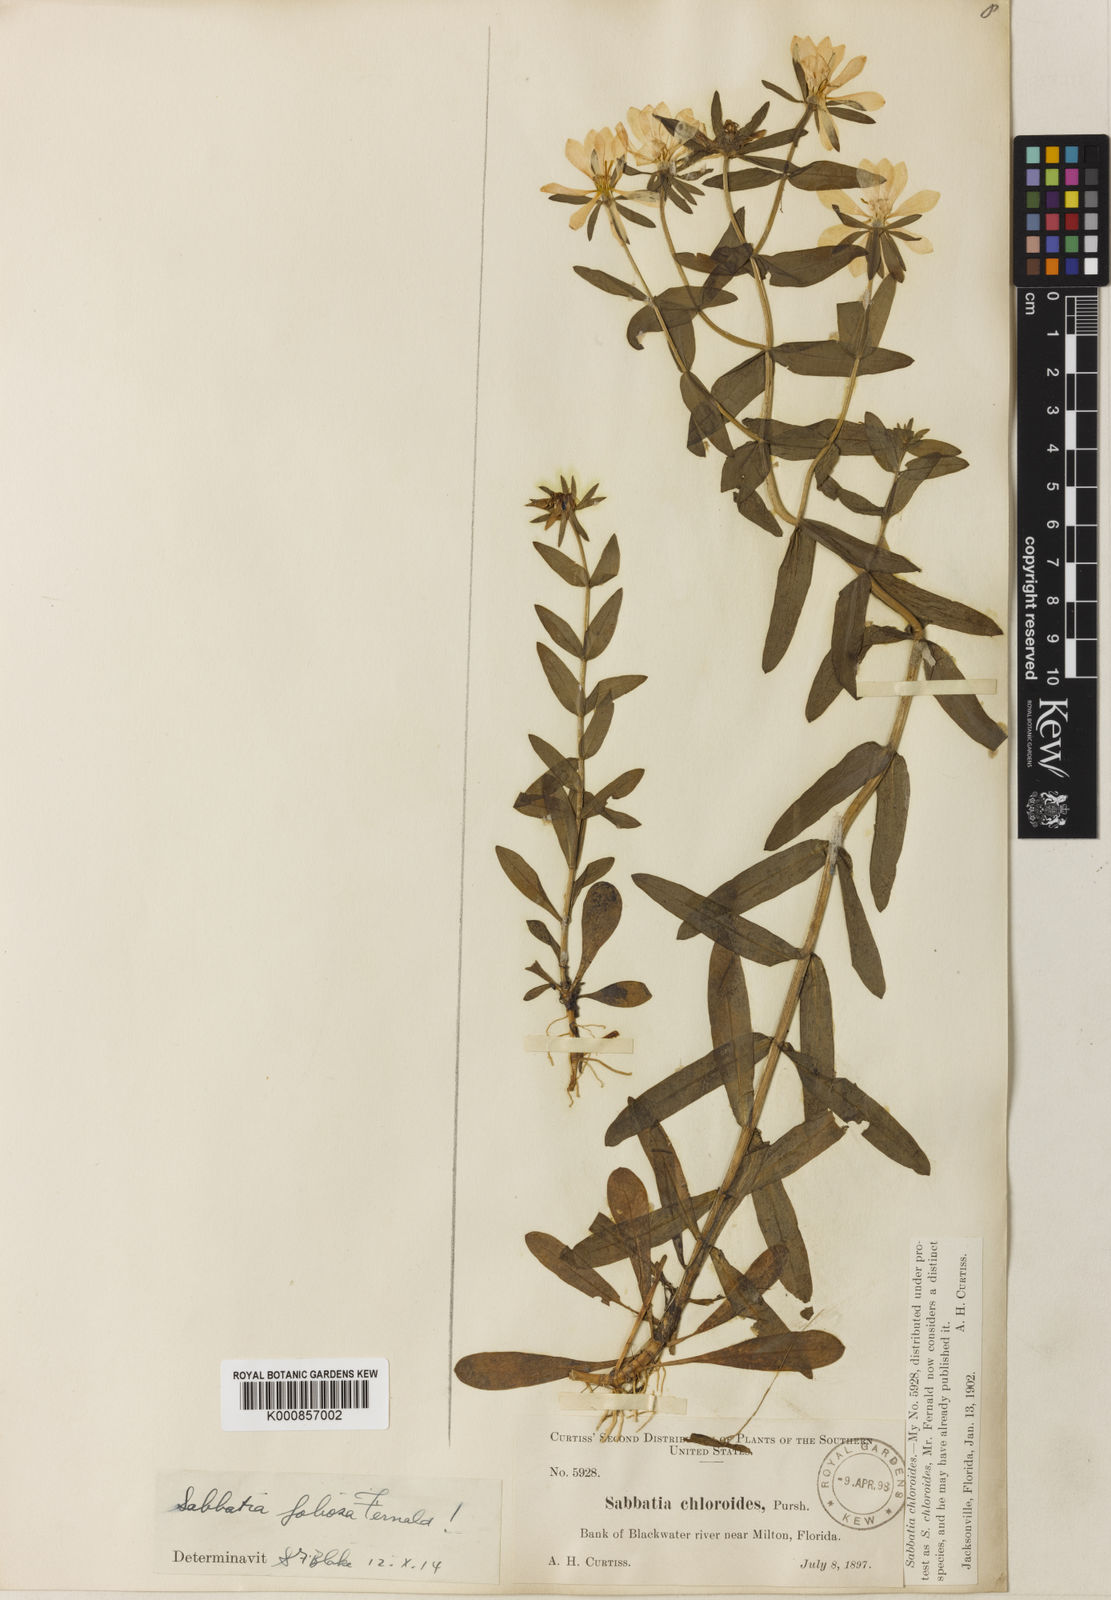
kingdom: Plantae
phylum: Tracheophyta
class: Magnoliopsida
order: Gentianales
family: Gentianaceae
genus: Sabatia
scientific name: Sabatia foliosa
